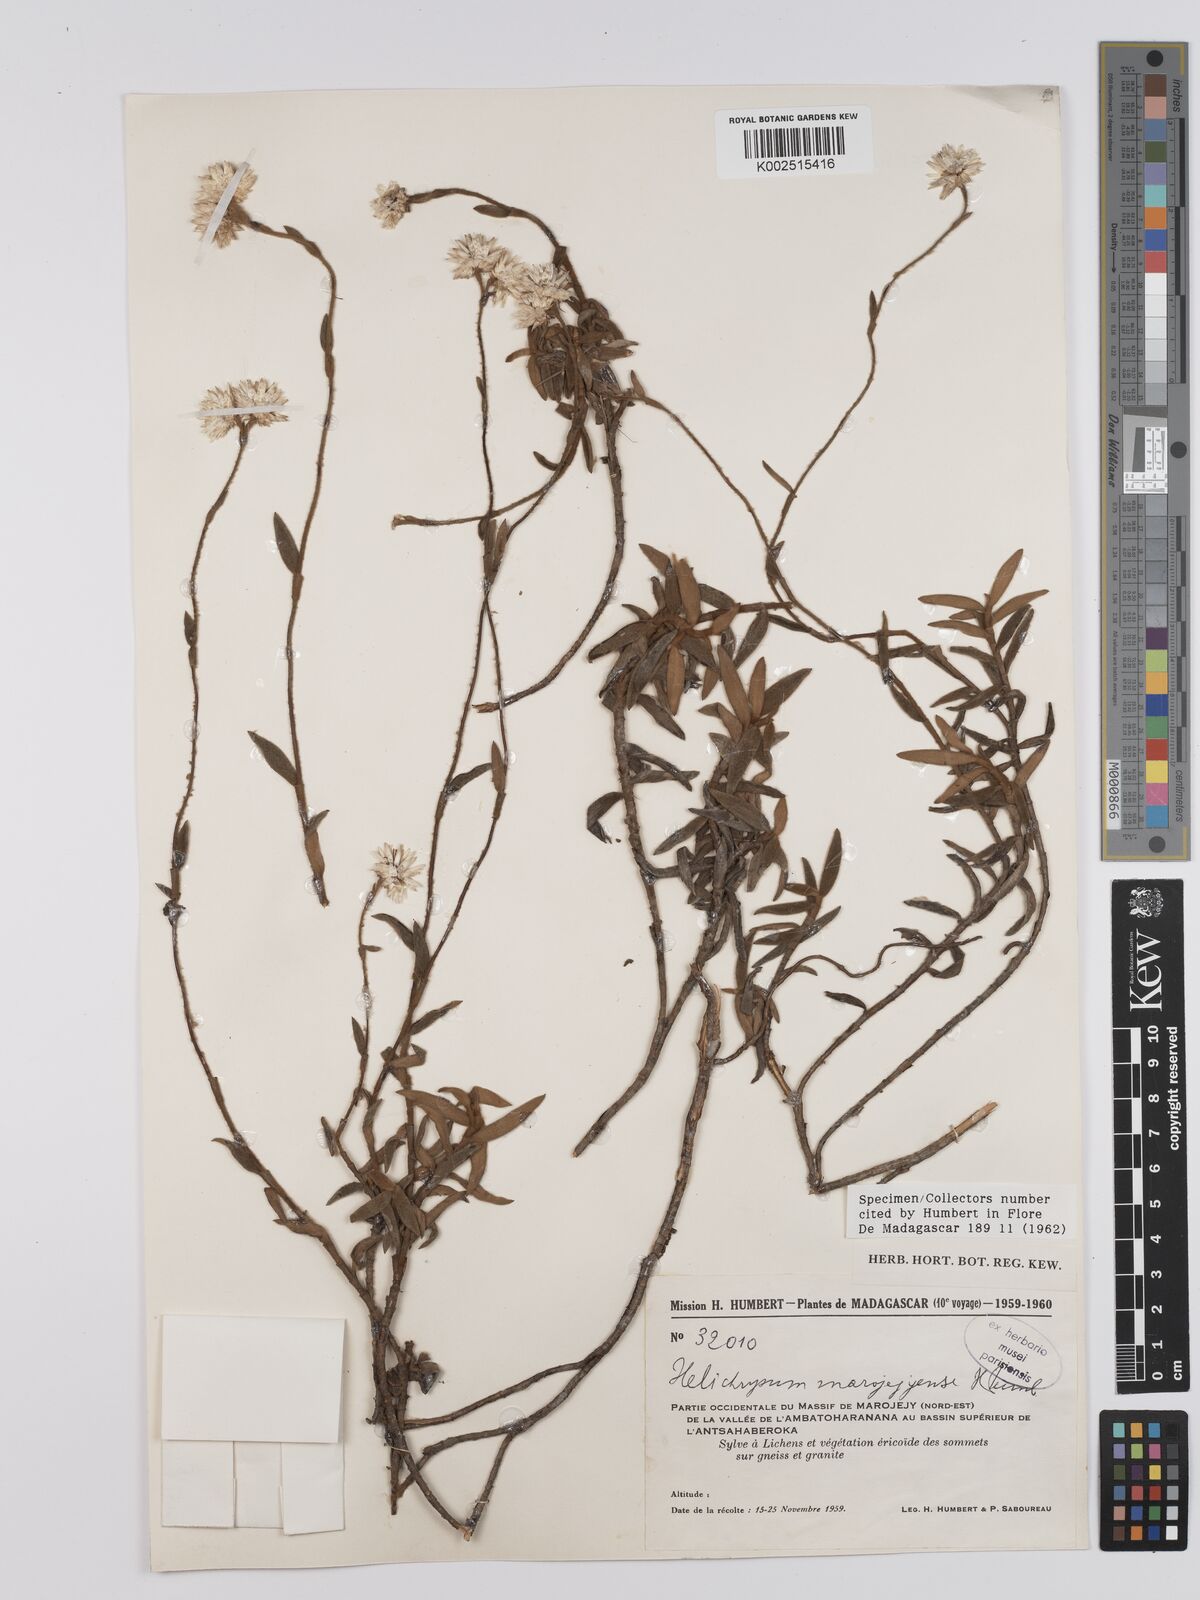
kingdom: Plantae
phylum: Tracheophyta
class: Magnoliopsida
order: Asterales
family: Asteraceae
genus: Helichrysum
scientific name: Helichrysum marojejyense
